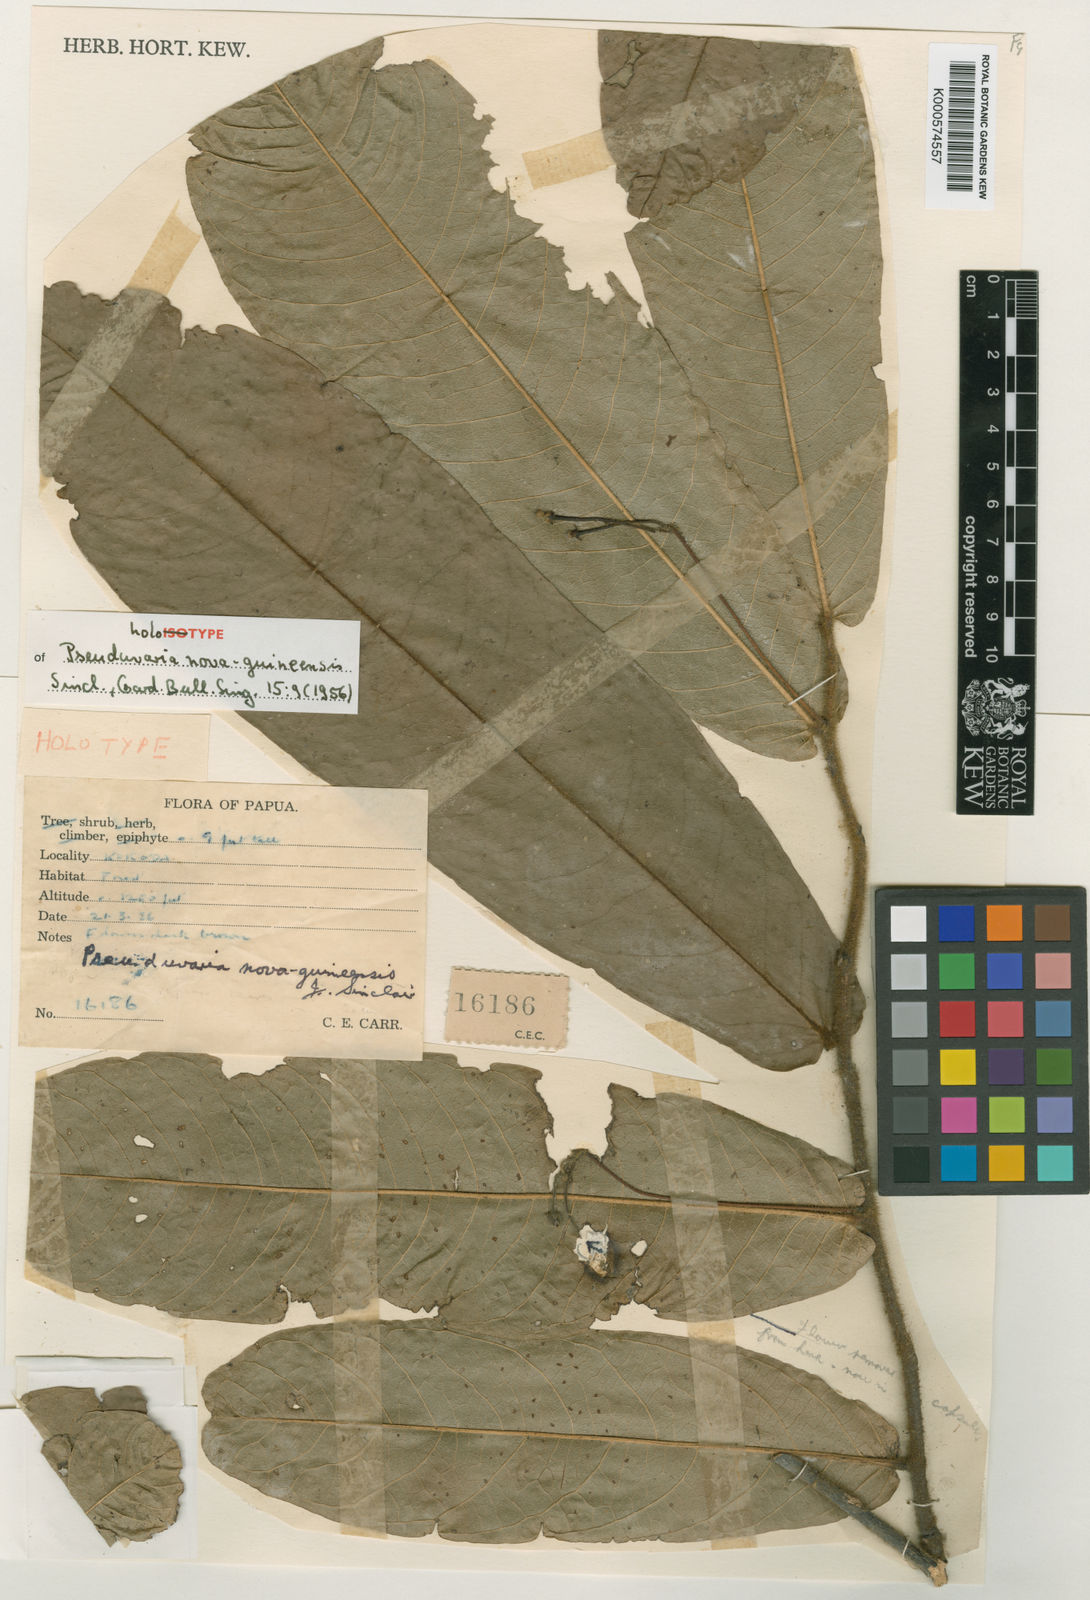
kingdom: Plantae
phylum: Tracheophyta
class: Magnoliopsida
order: Magnoliales
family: Annonaceae
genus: Pseuduvaria
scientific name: Pseuduvaria
